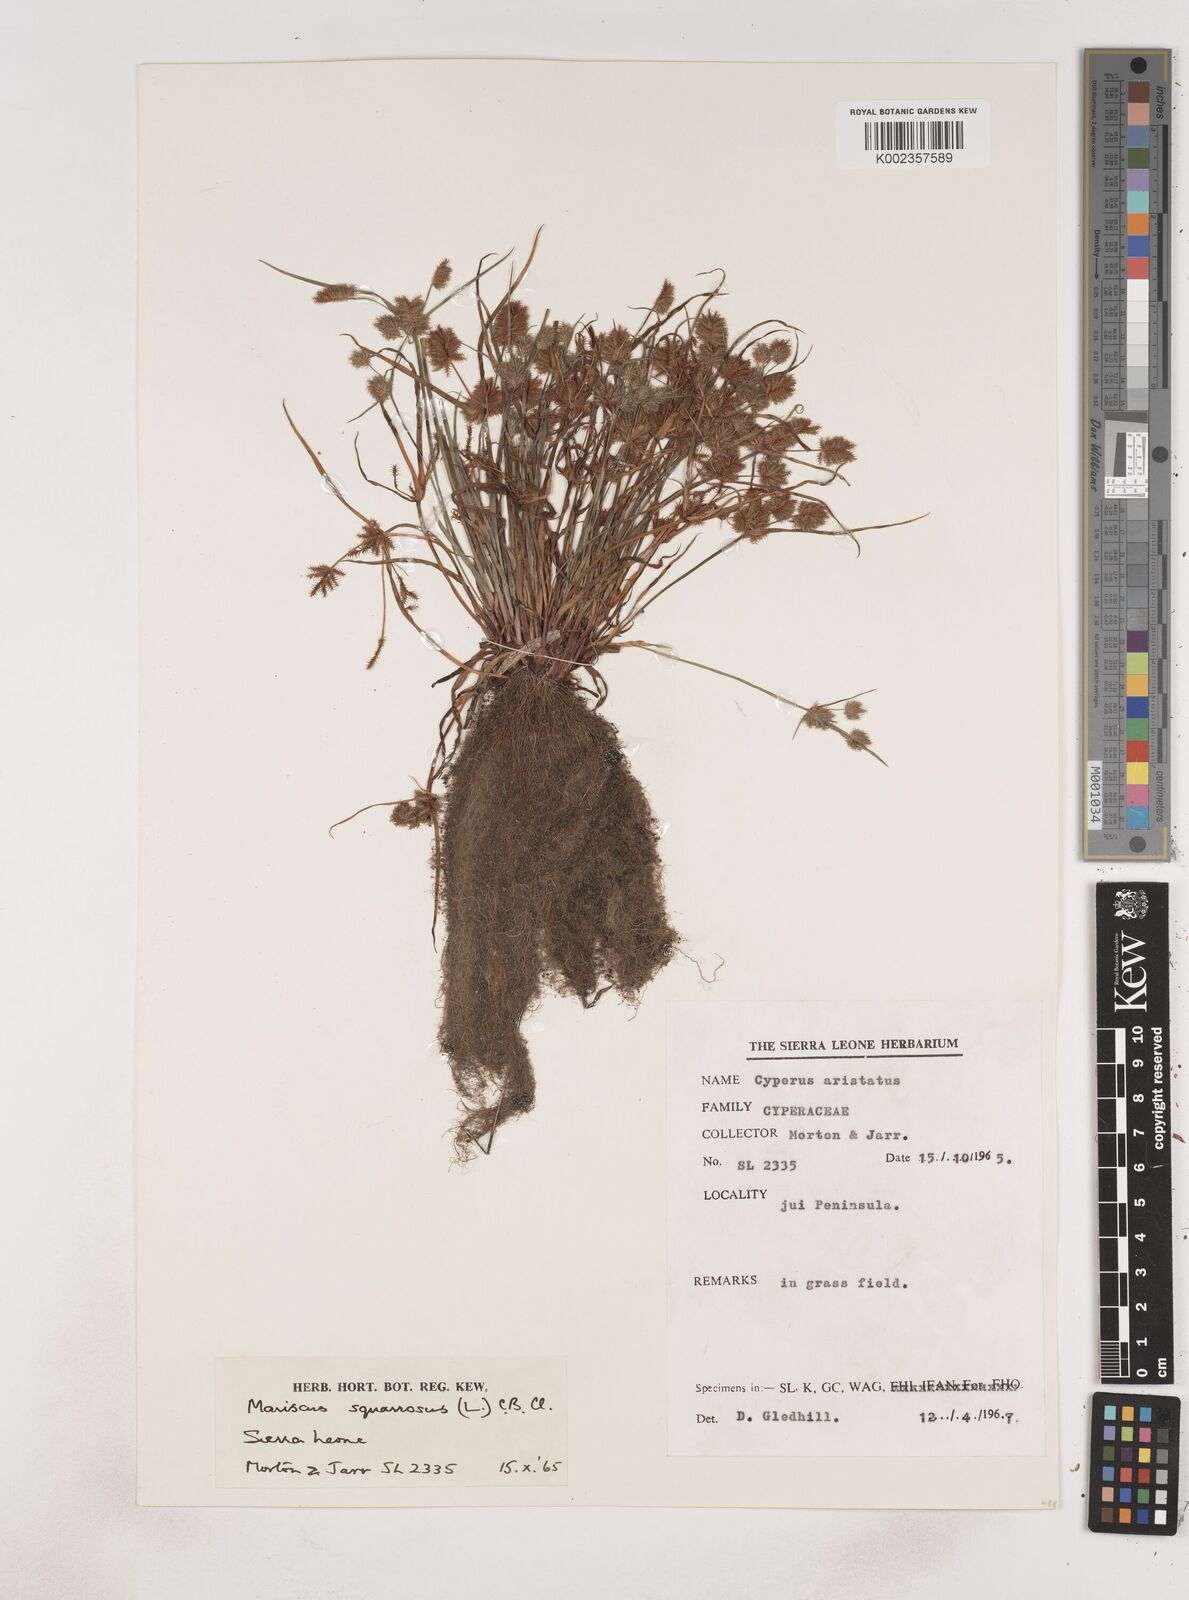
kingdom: Plantae
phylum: Tracheophyta
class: Liliopsida
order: Poales
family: Cyperaceae
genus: Cyperus
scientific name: Cyperus squarrosus
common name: Awned cyperus
